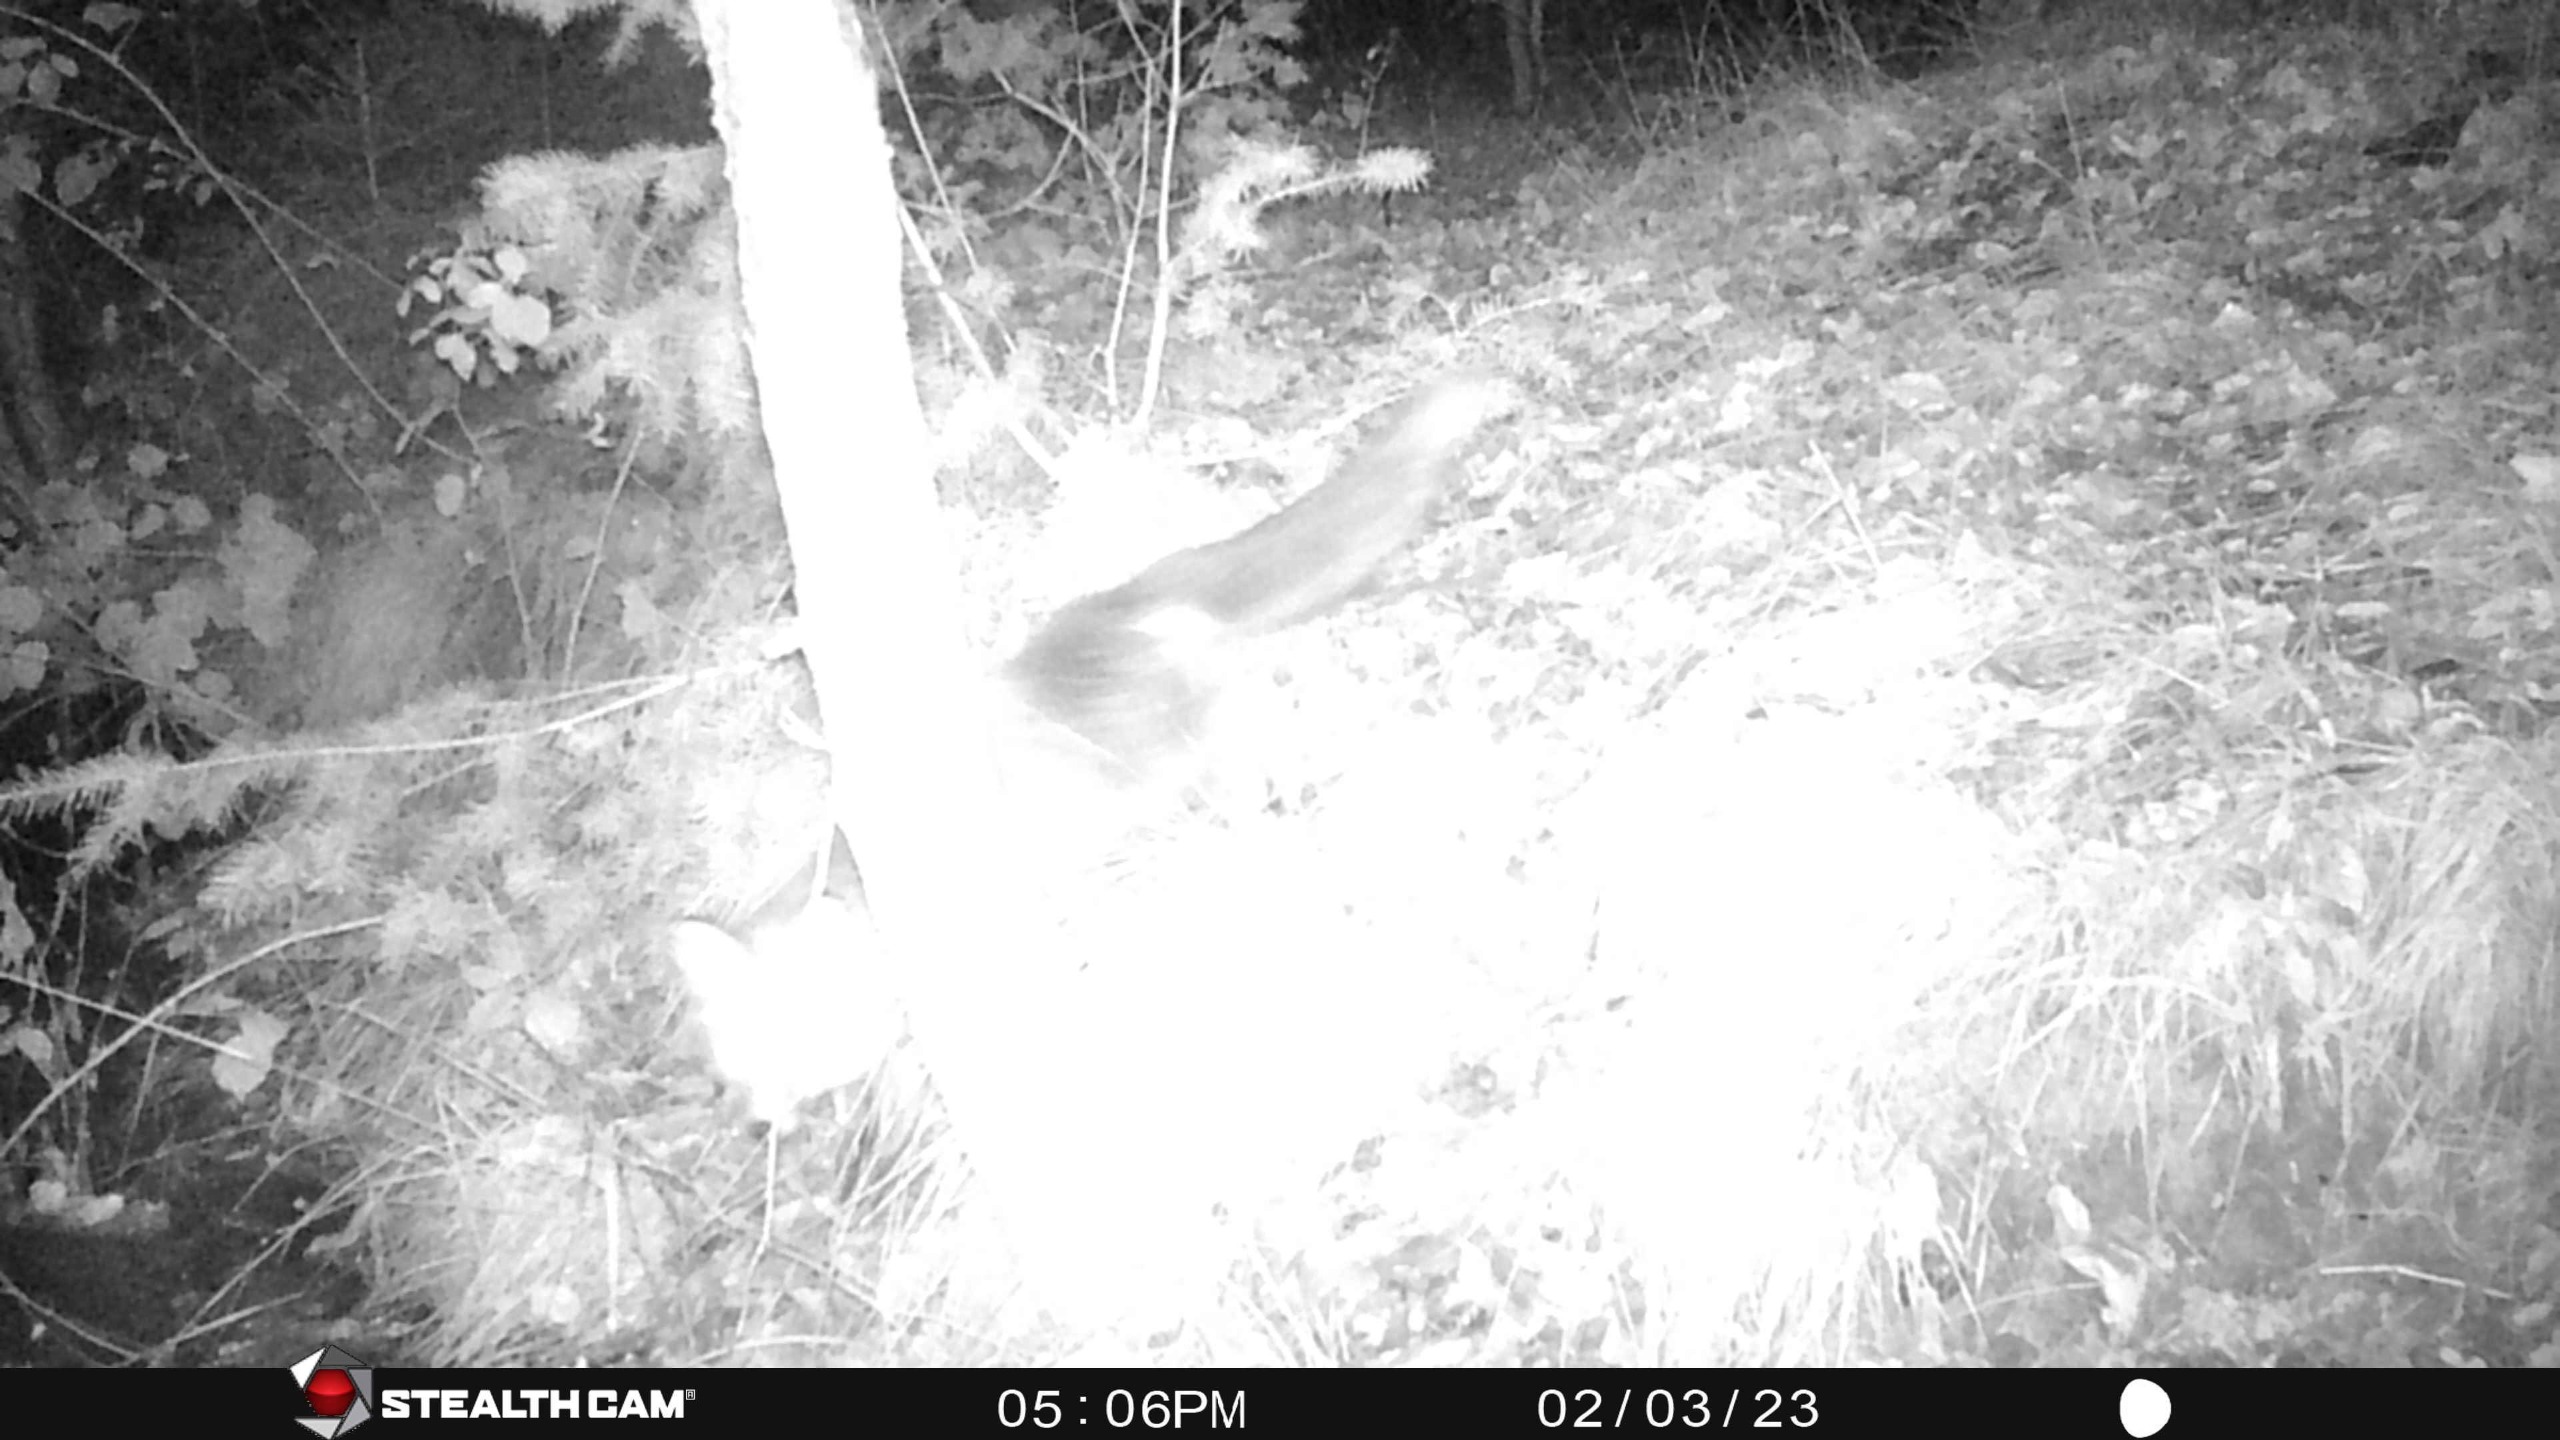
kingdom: Animalia
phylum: Chordata
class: Mammalia
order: Carnivora
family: Canidae
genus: Vulpes
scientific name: Vulpes vulpes
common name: Ræv
